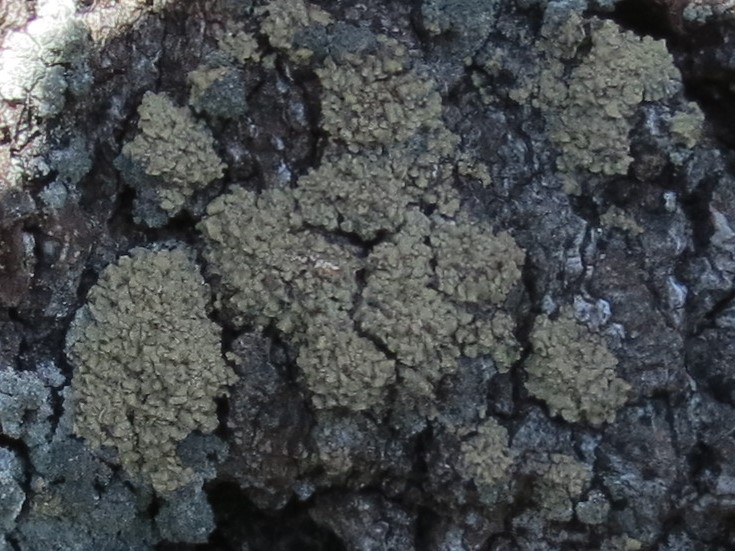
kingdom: Fungi
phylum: Ascomycota
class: Lecanoromycetes
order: Umbilicariales
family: Ophioparmaceae
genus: Hypocenomyce
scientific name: Hypocenomyce scalaris
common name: småskællet muslinglav
